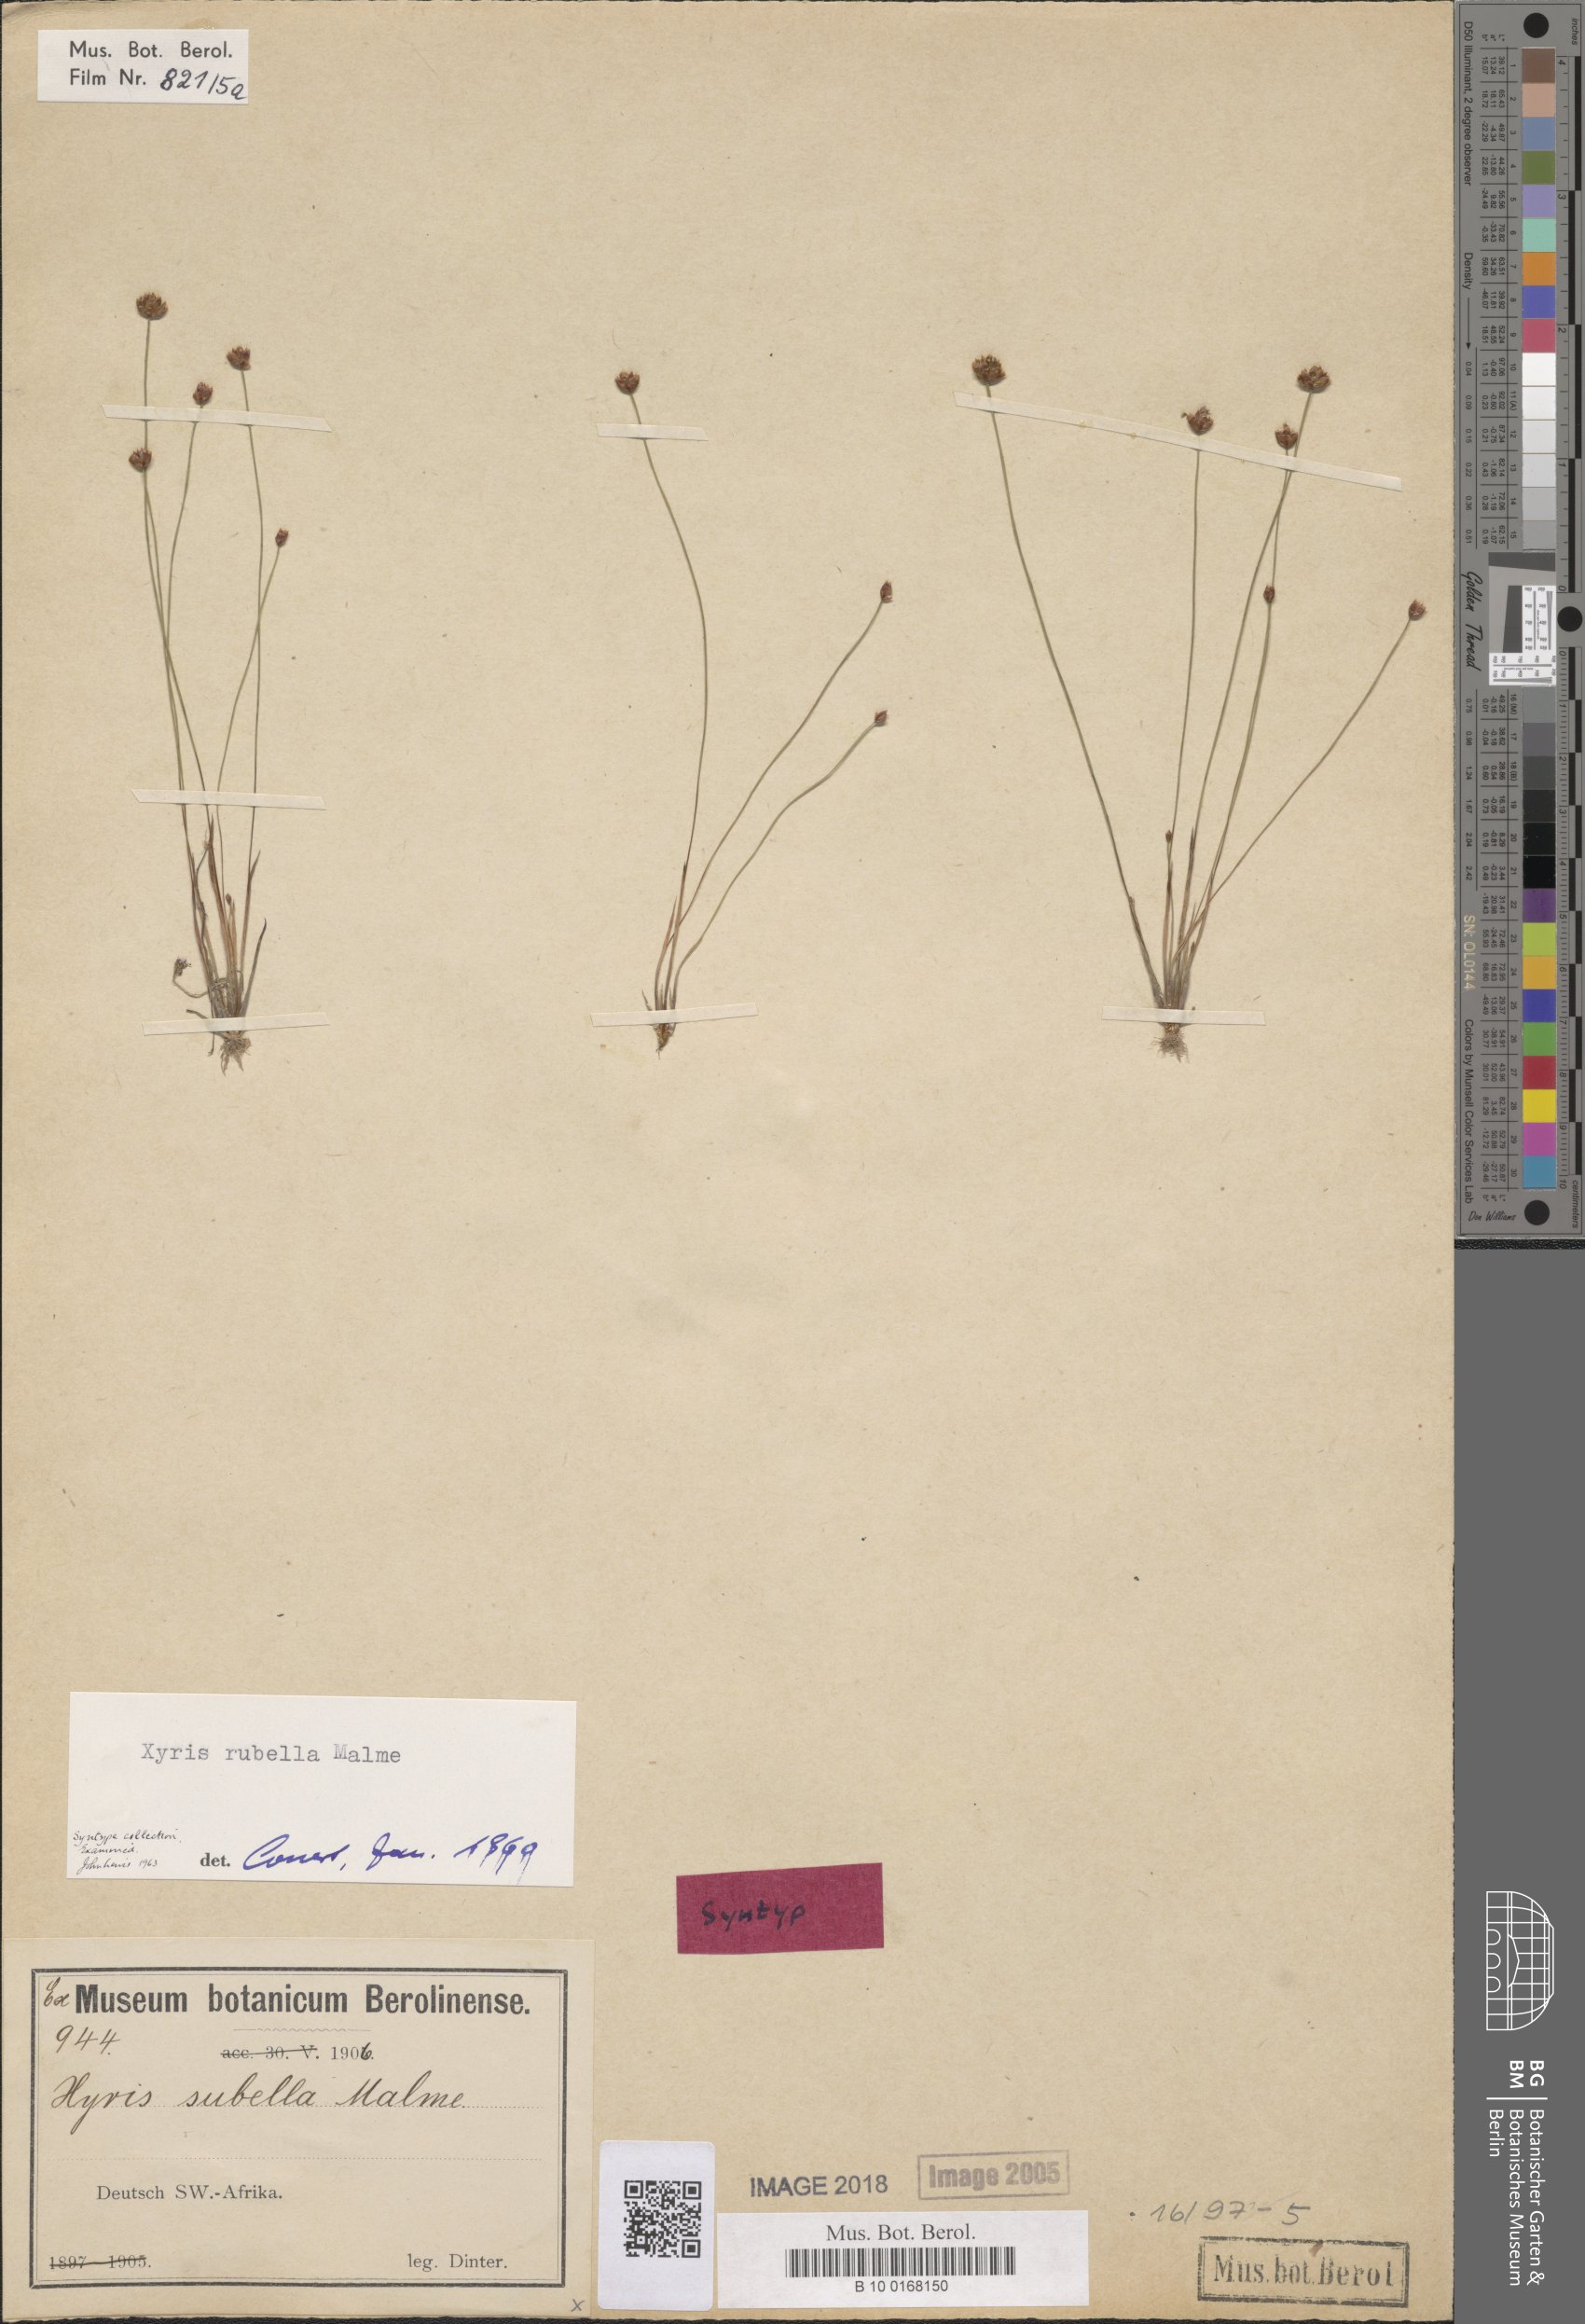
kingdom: Plantae
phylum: Tracheophyta
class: Liliopsida
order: Poales
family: Xyridaceae
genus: Xyris
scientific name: Xyris rubella
